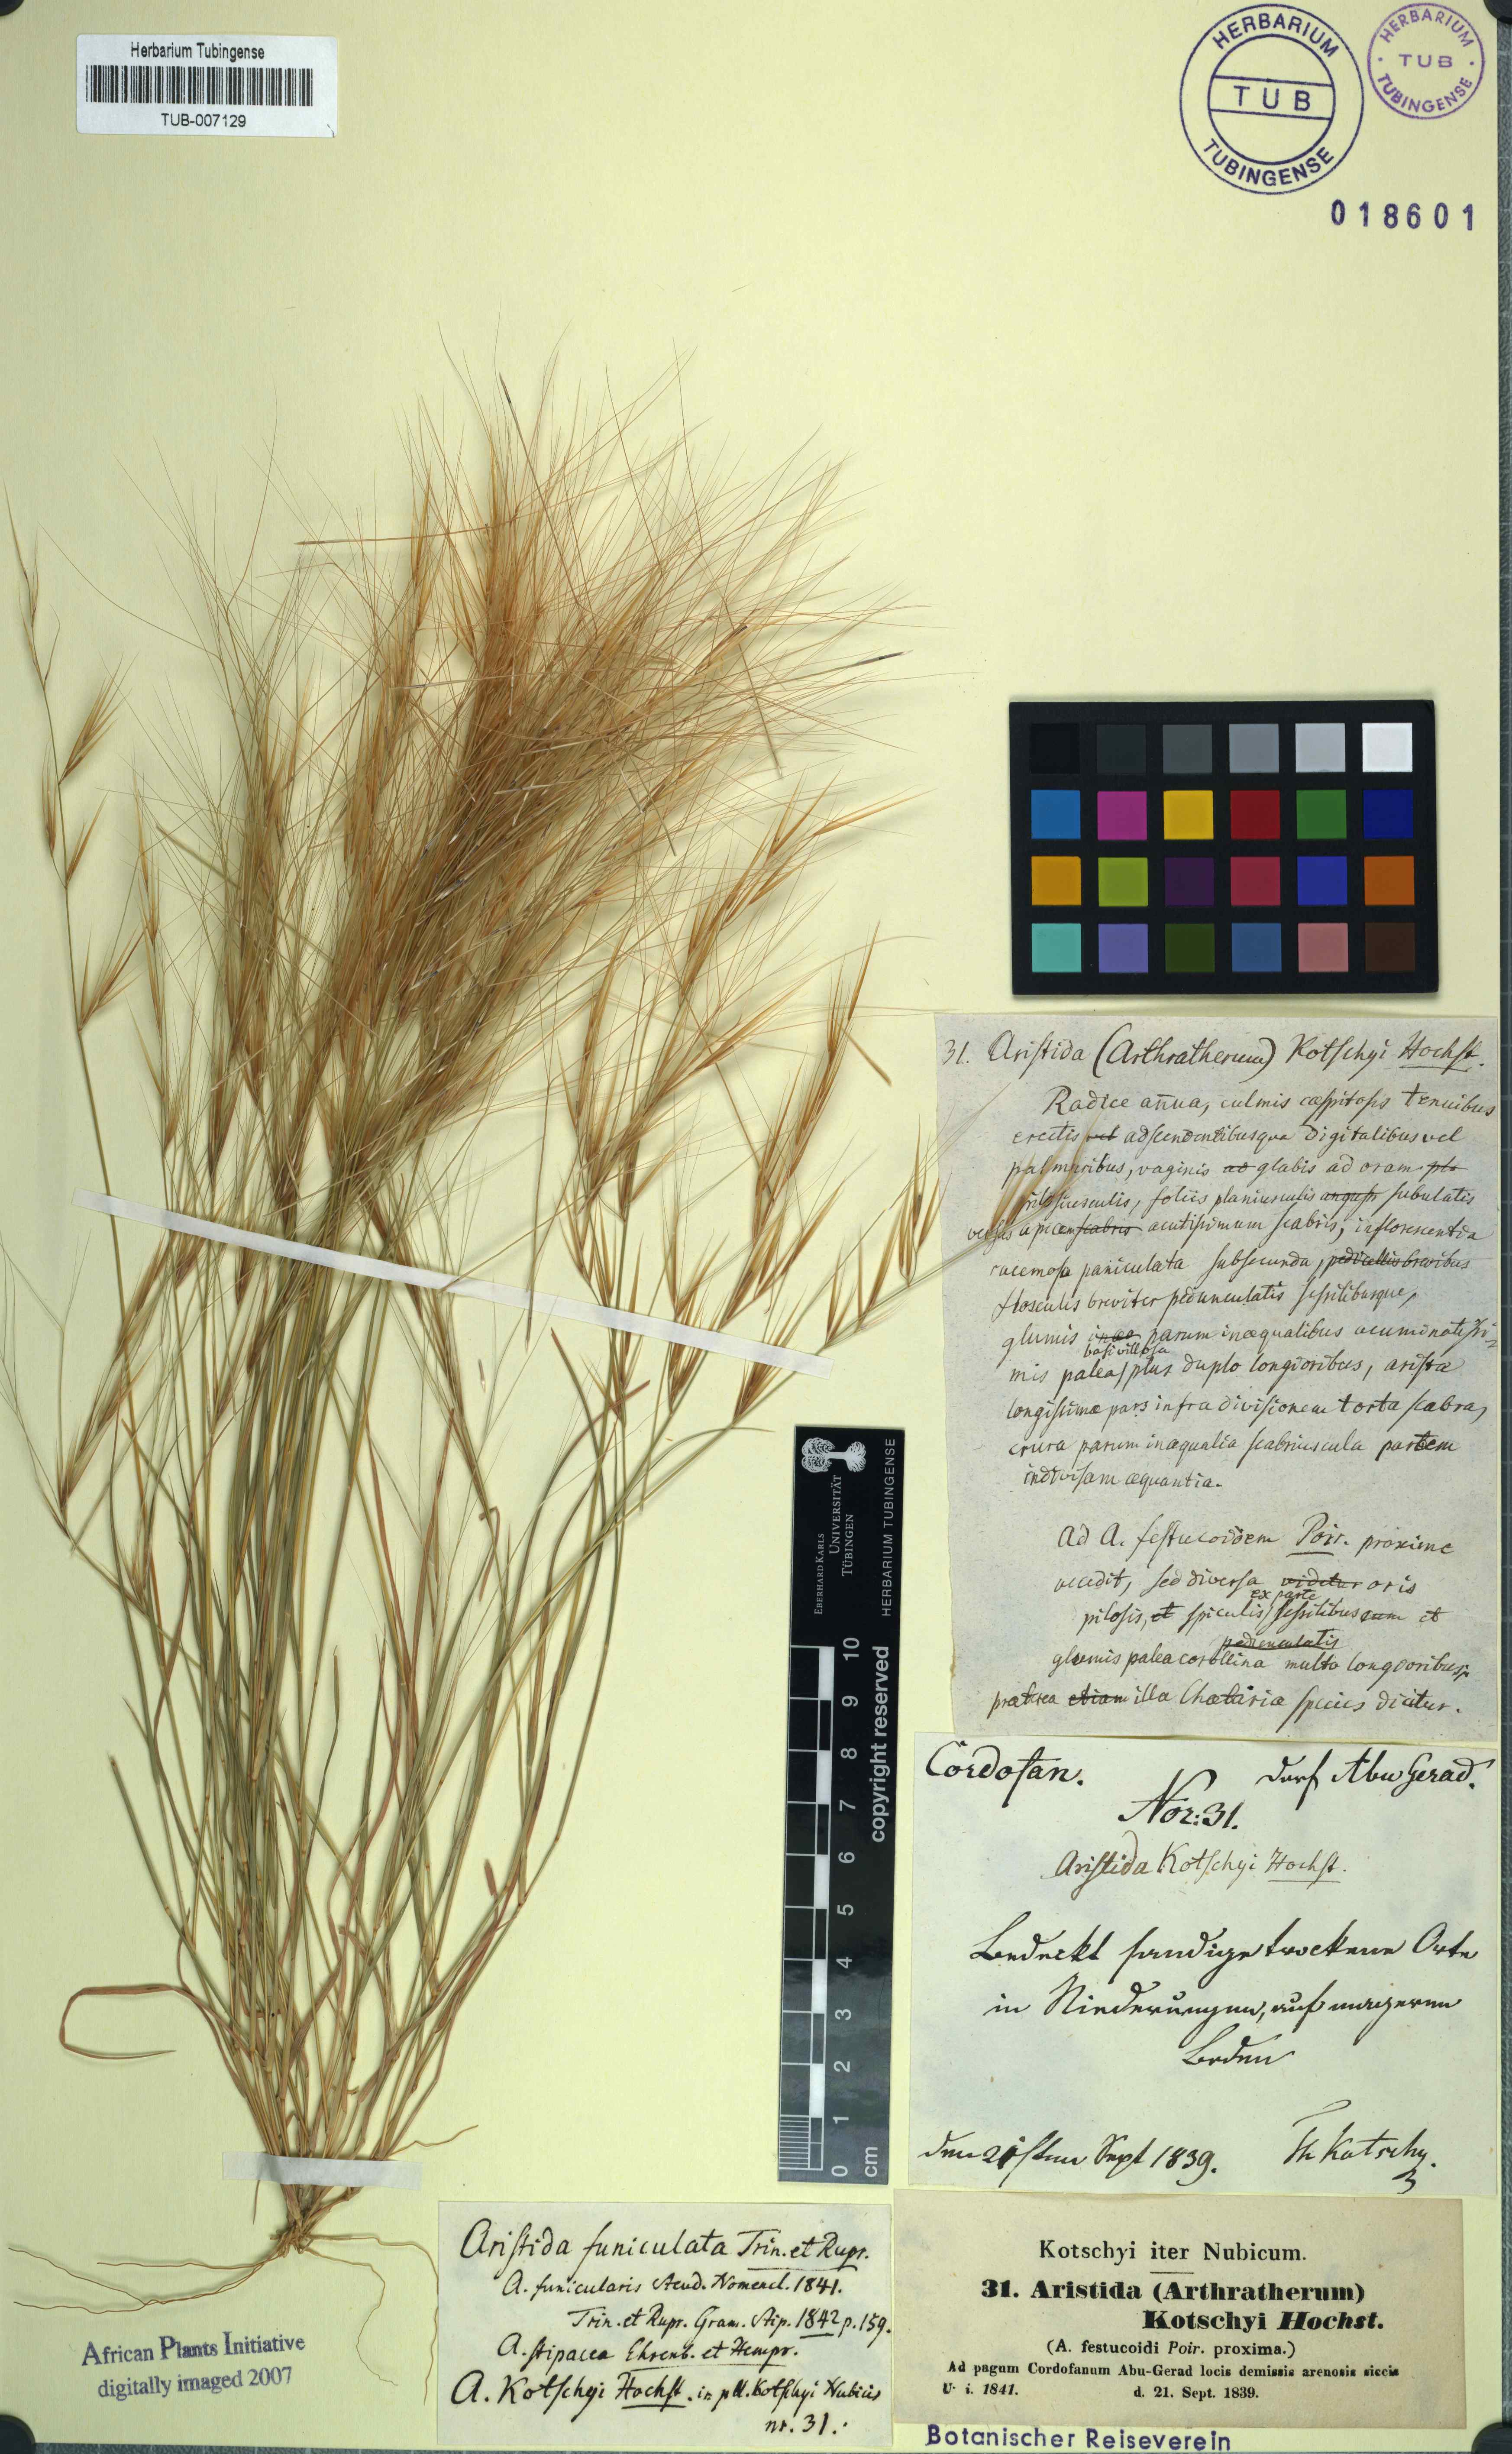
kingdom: Plantae
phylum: Tracheophyta
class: Liliopsida
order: Poales
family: Poaceae
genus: Aristida
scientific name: Aristida funiculata
